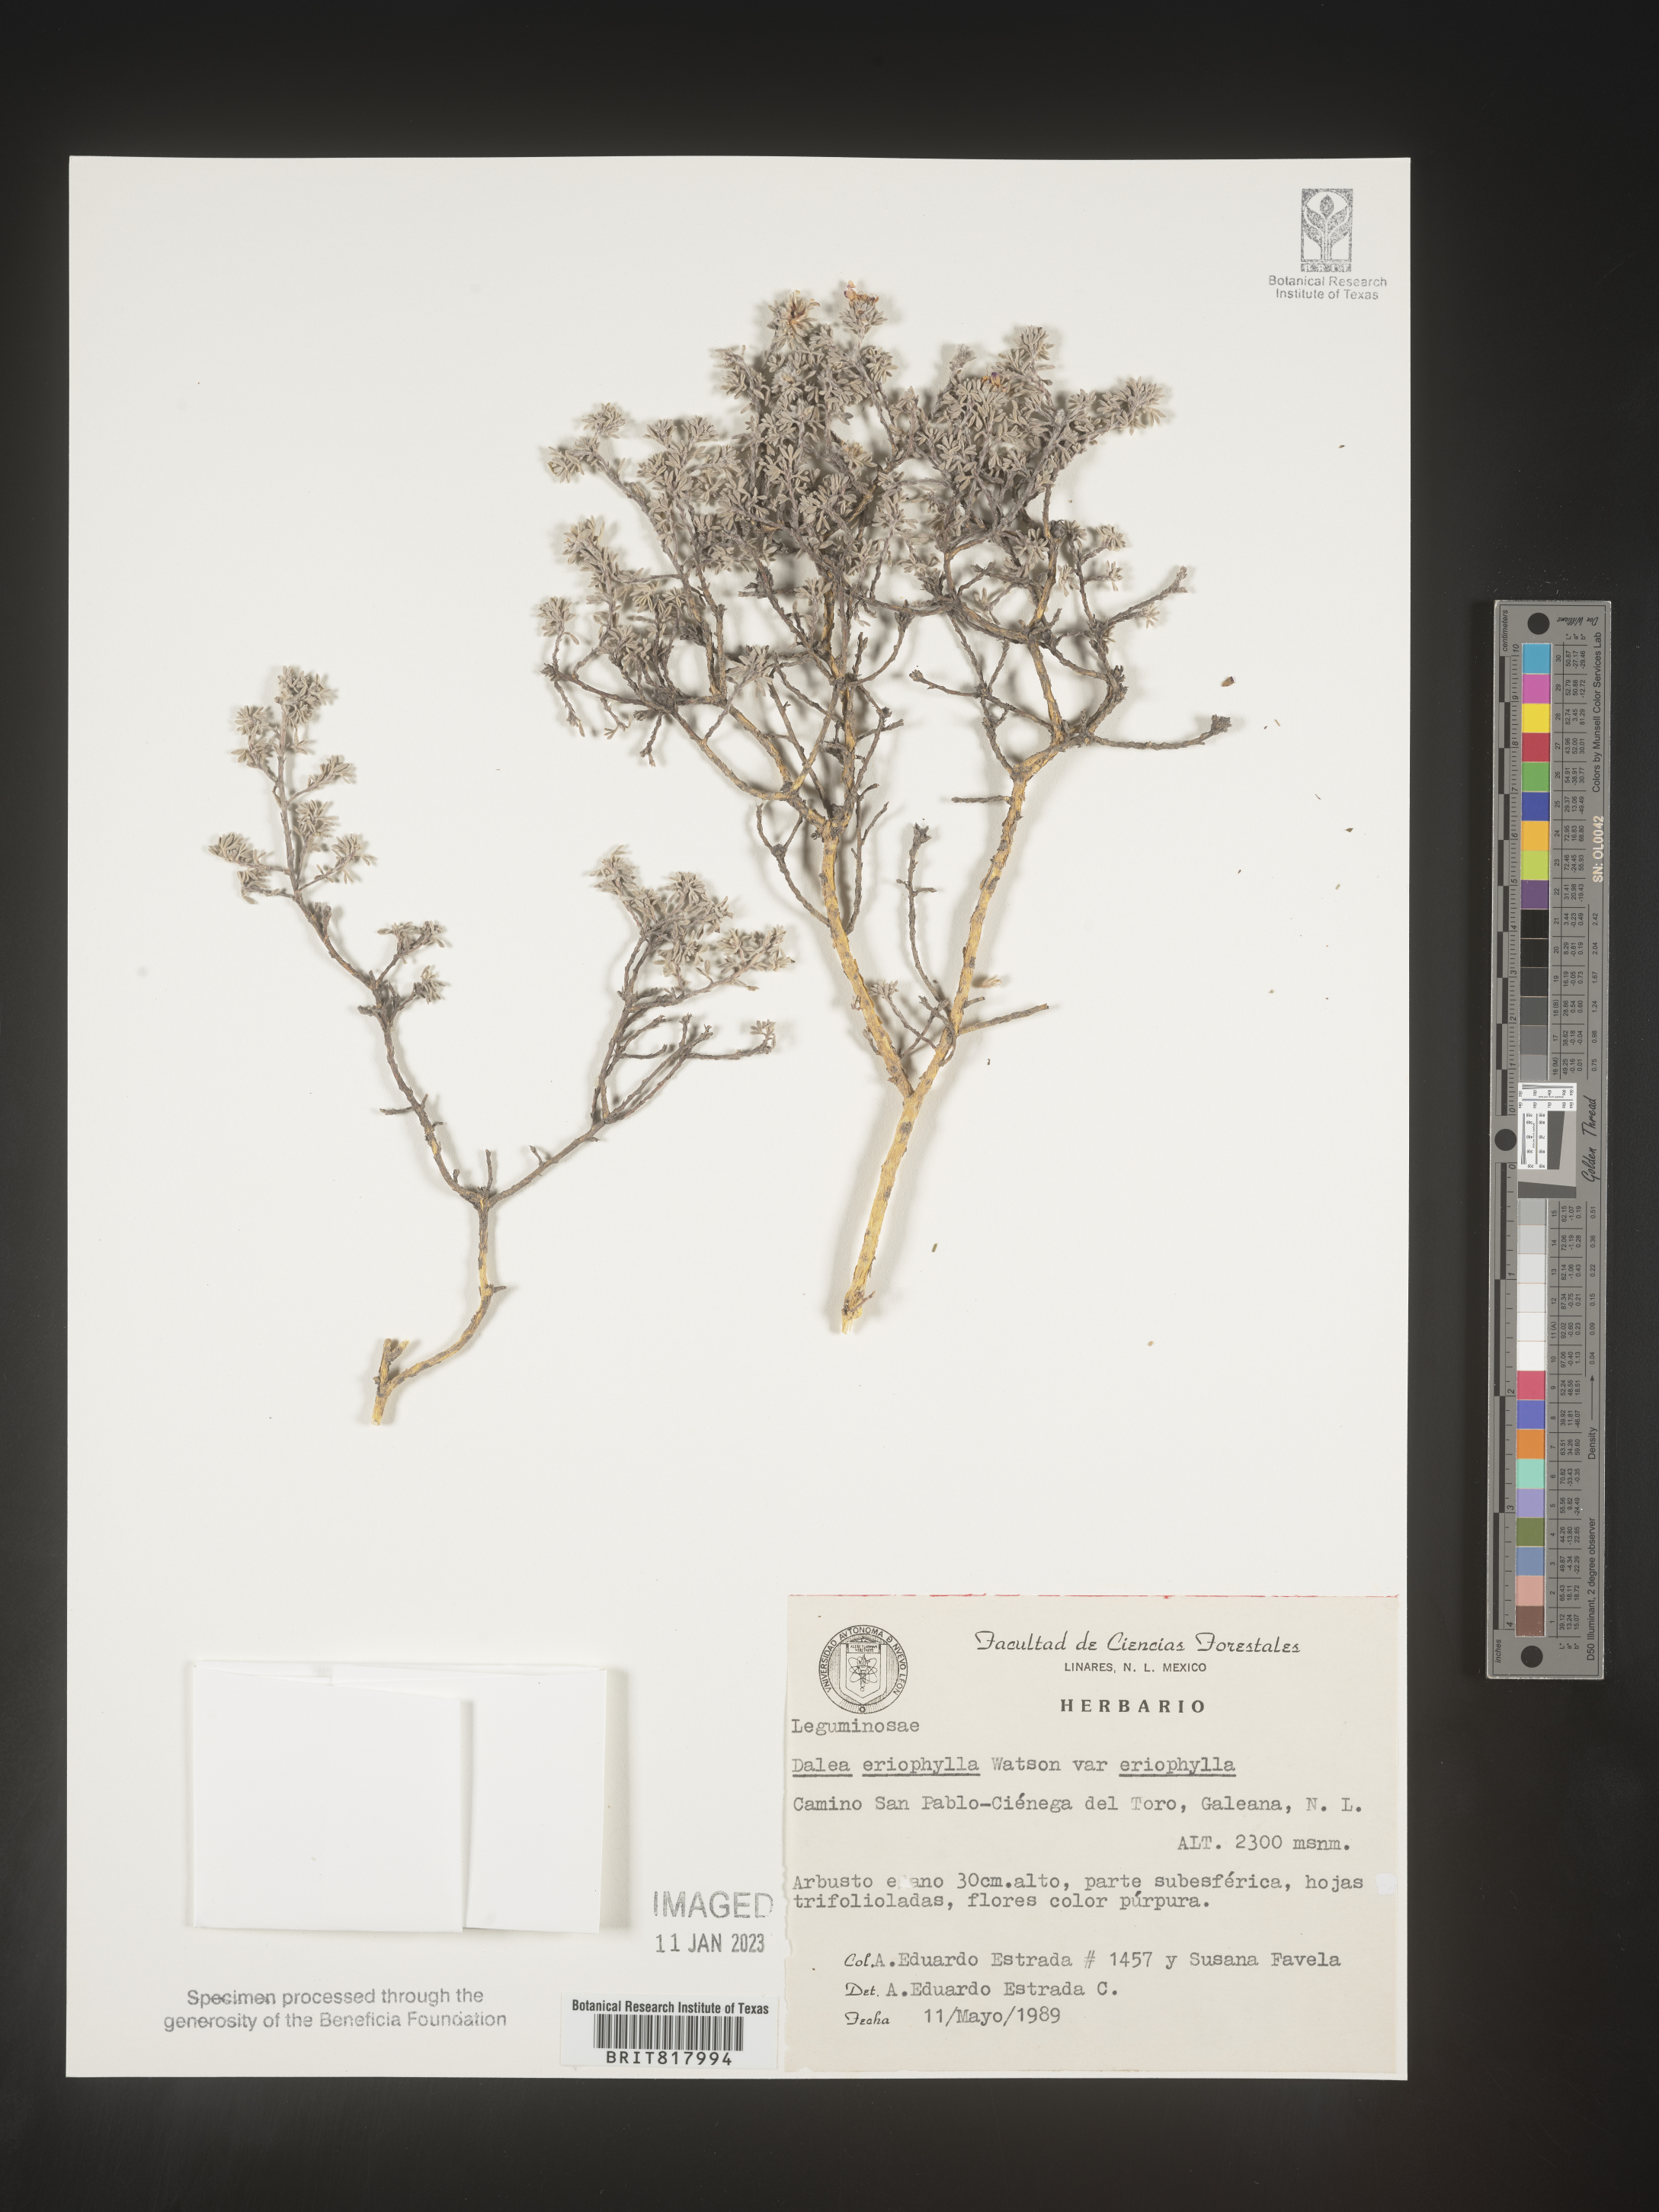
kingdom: Plantae
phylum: Tracheophyta
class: Magnoliopsida
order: Fabales
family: Fabaceae
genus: Dalea
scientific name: Dalea
